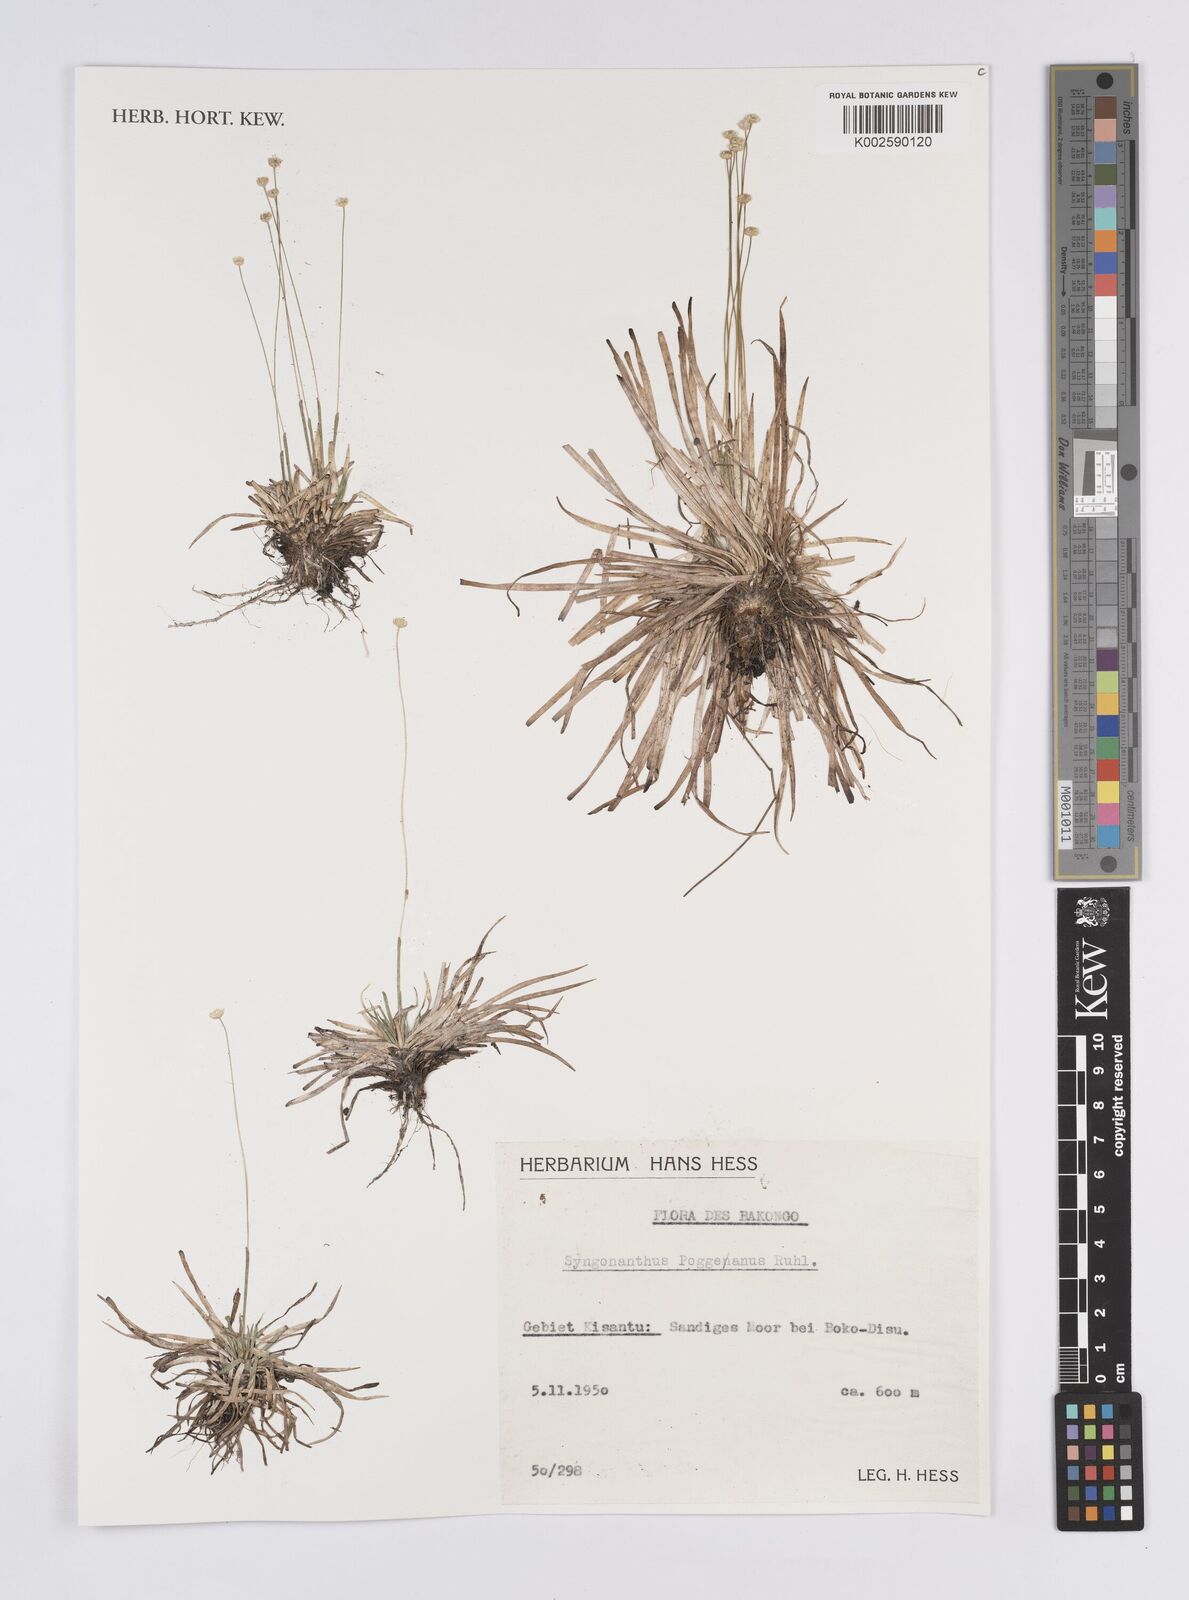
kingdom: Plantae
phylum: Tracheophyta
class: Liliopsida
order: Poales
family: Eriocaulaceae
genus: Syngonanthus
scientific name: Syngonanthus poggeanus
